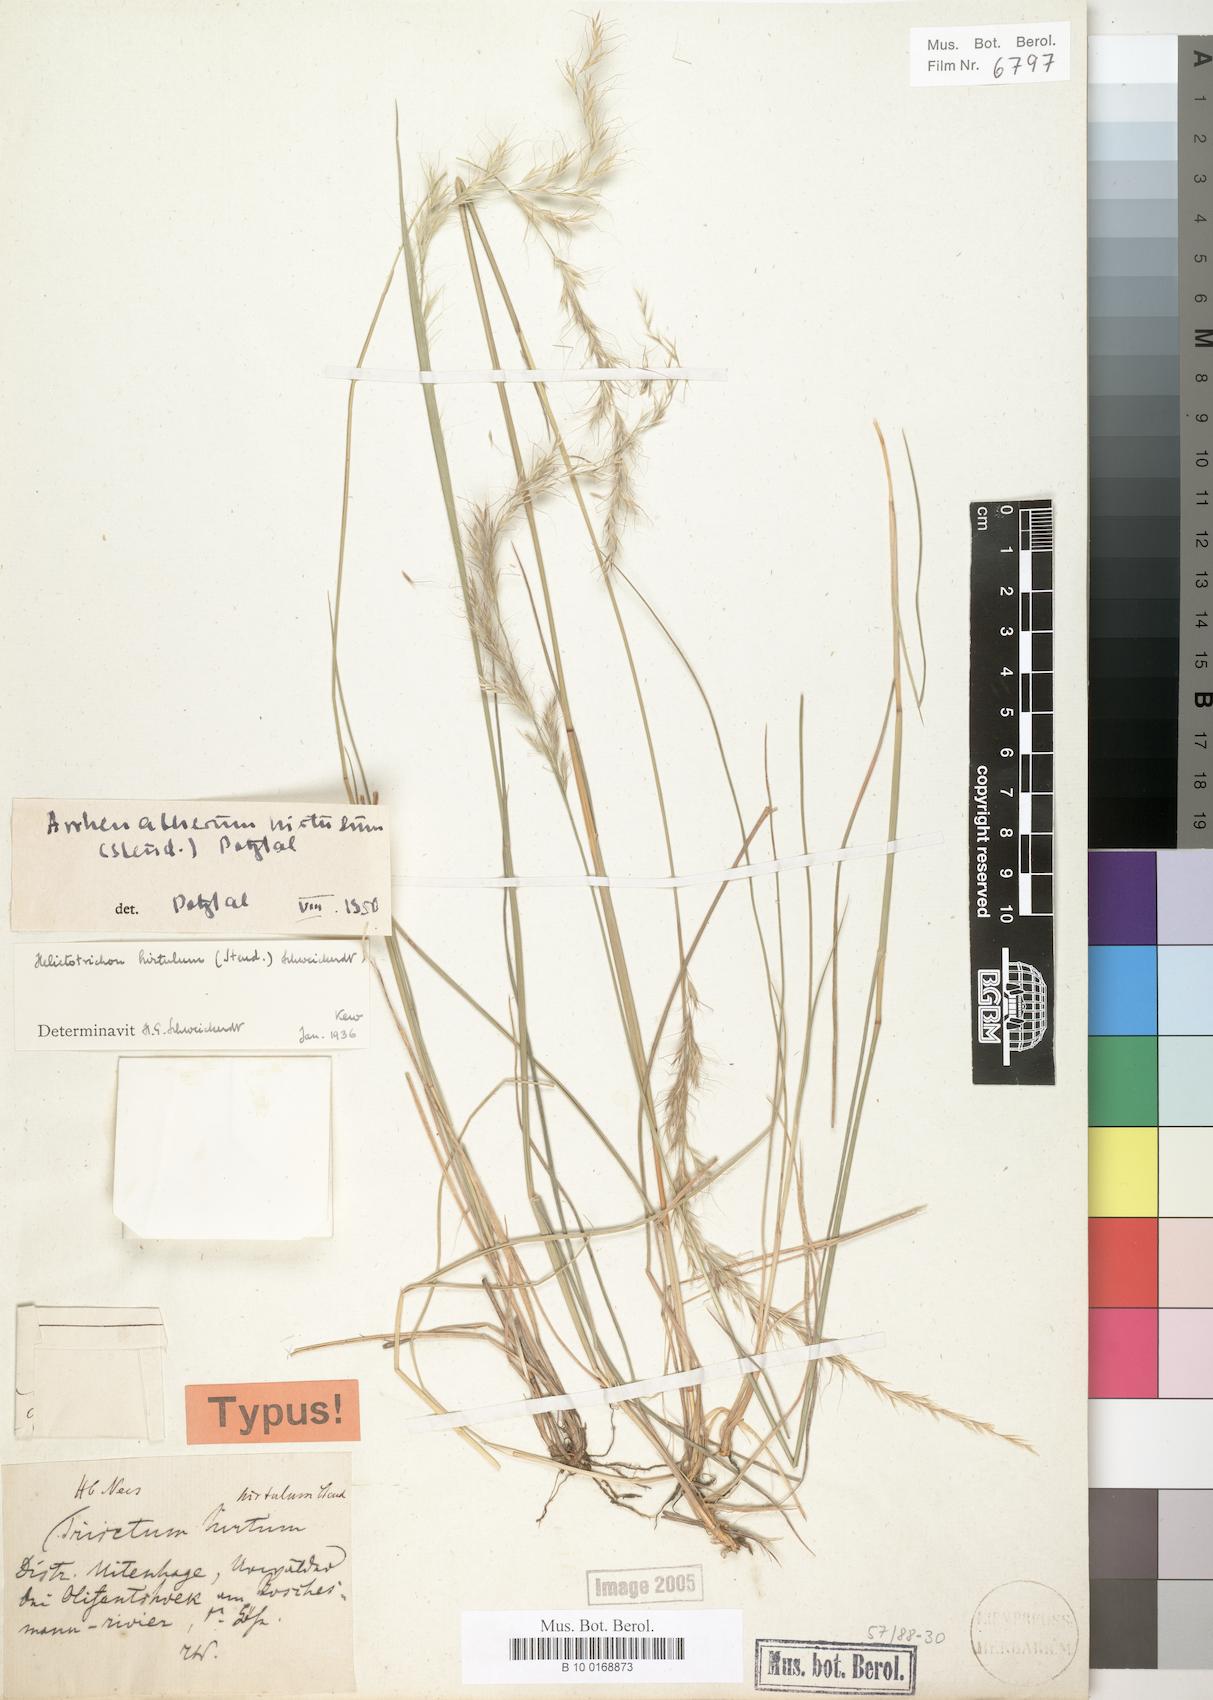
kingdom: Plantae
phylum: Tracheophyta
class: Liliopsida
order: Poales
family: Poaceae
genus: Trisetopsis
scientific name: Trisetopsis hirtula
